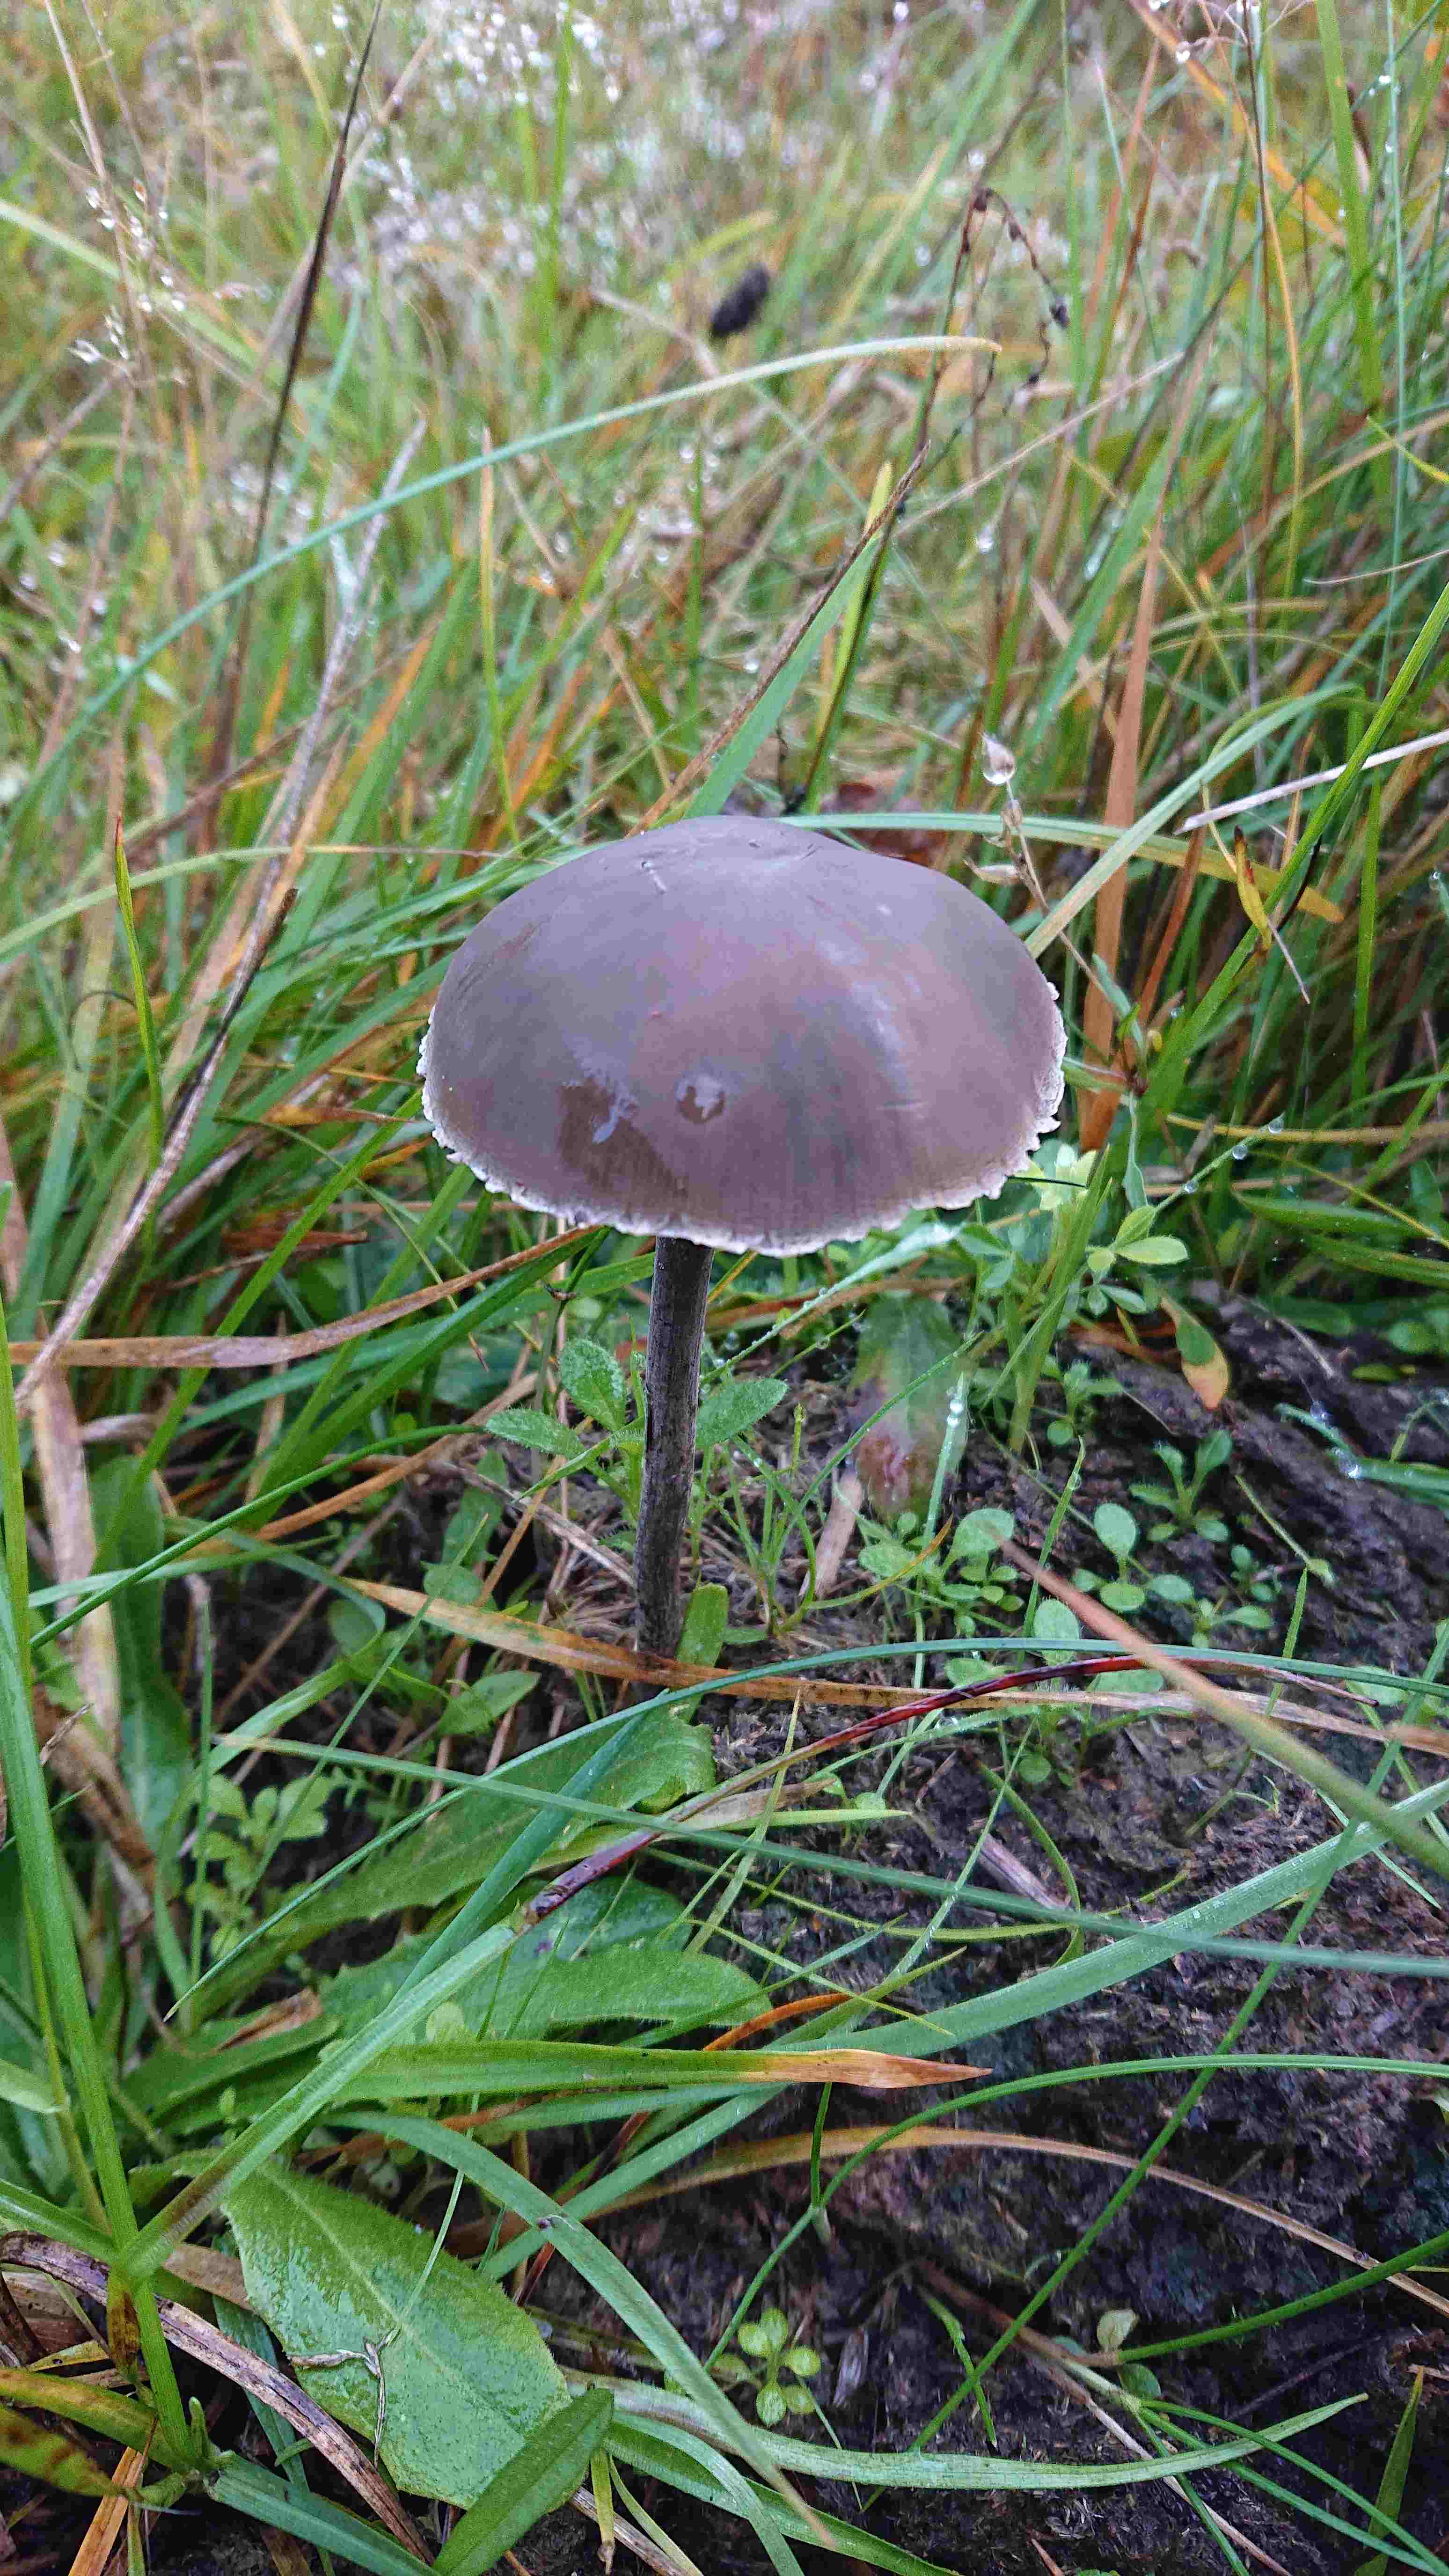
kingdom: Fungi
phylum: Basidiomycota
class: Agaricomycetes
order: Agaricales
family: Bolbitiaceae
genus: Panaeolus
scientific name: Panaeolus papilionaceus
